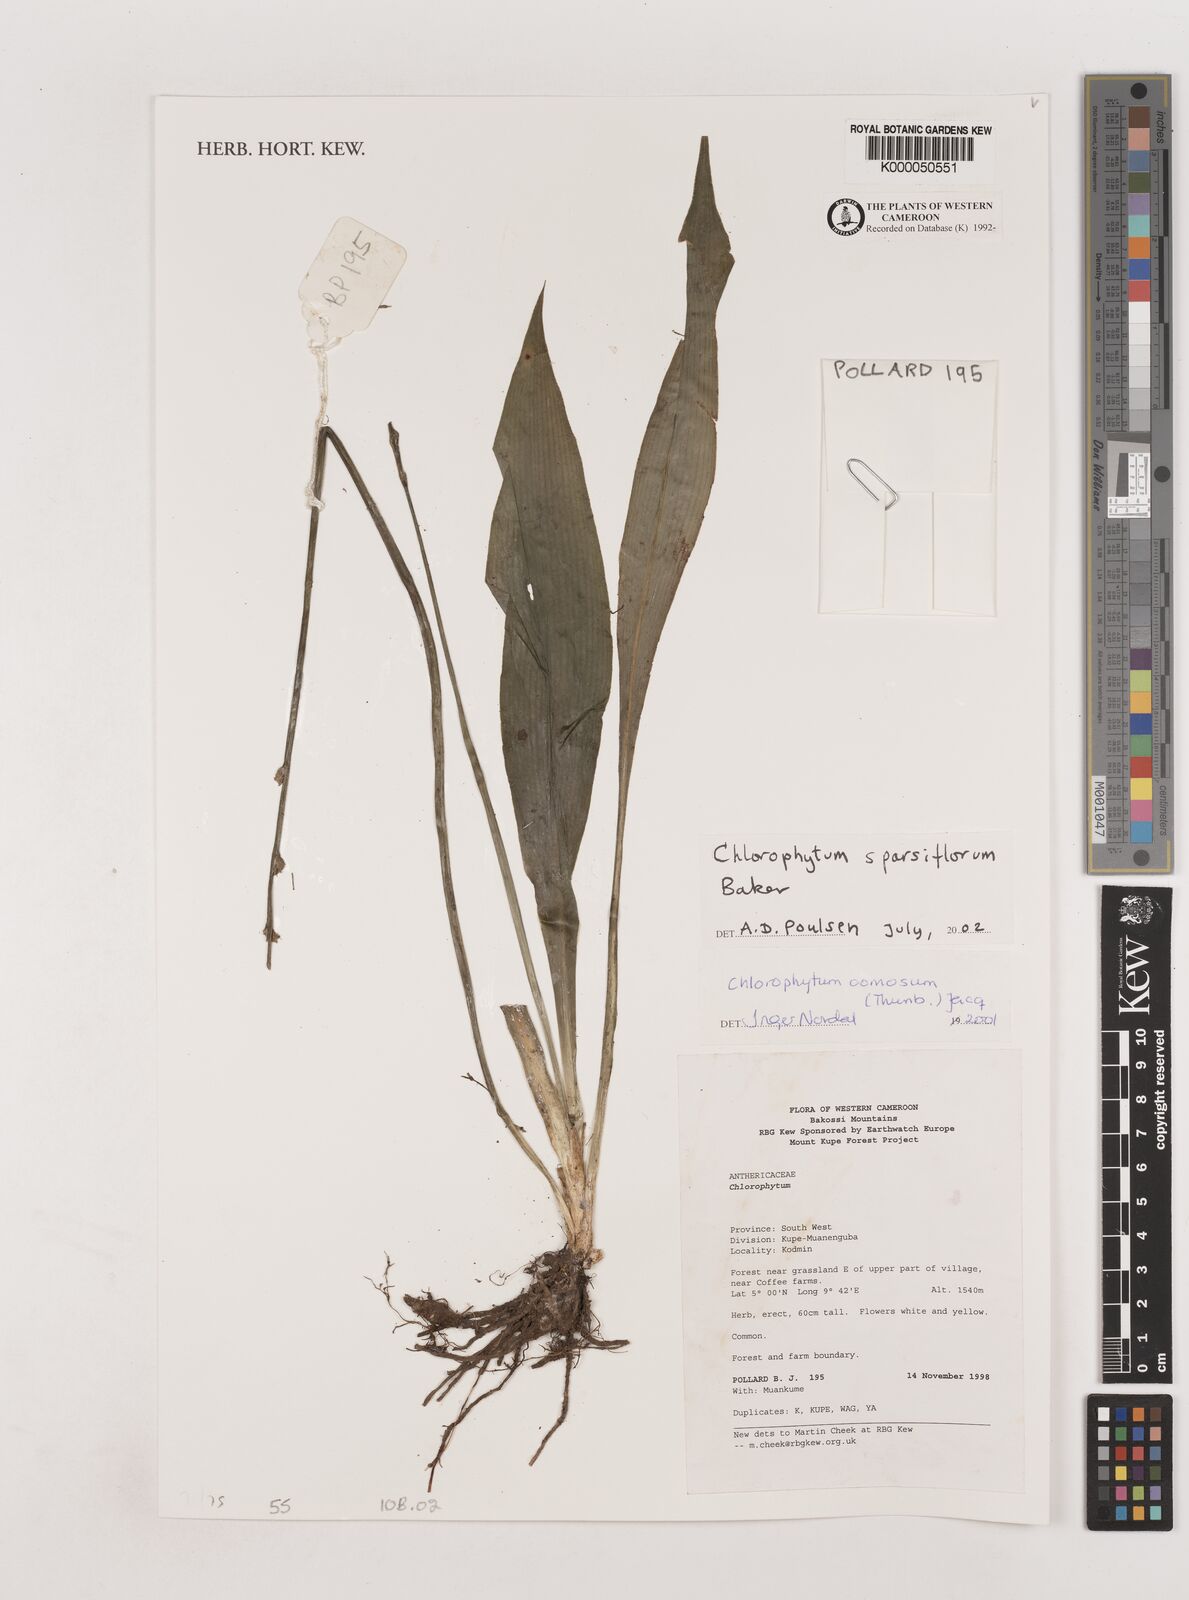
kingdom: Plantae
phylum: Tracheophyta
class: Liliopsida
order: Asparagales
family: Asparagaceae
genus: Chlorophytum
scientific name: Chlorophytum sparsiflorum
